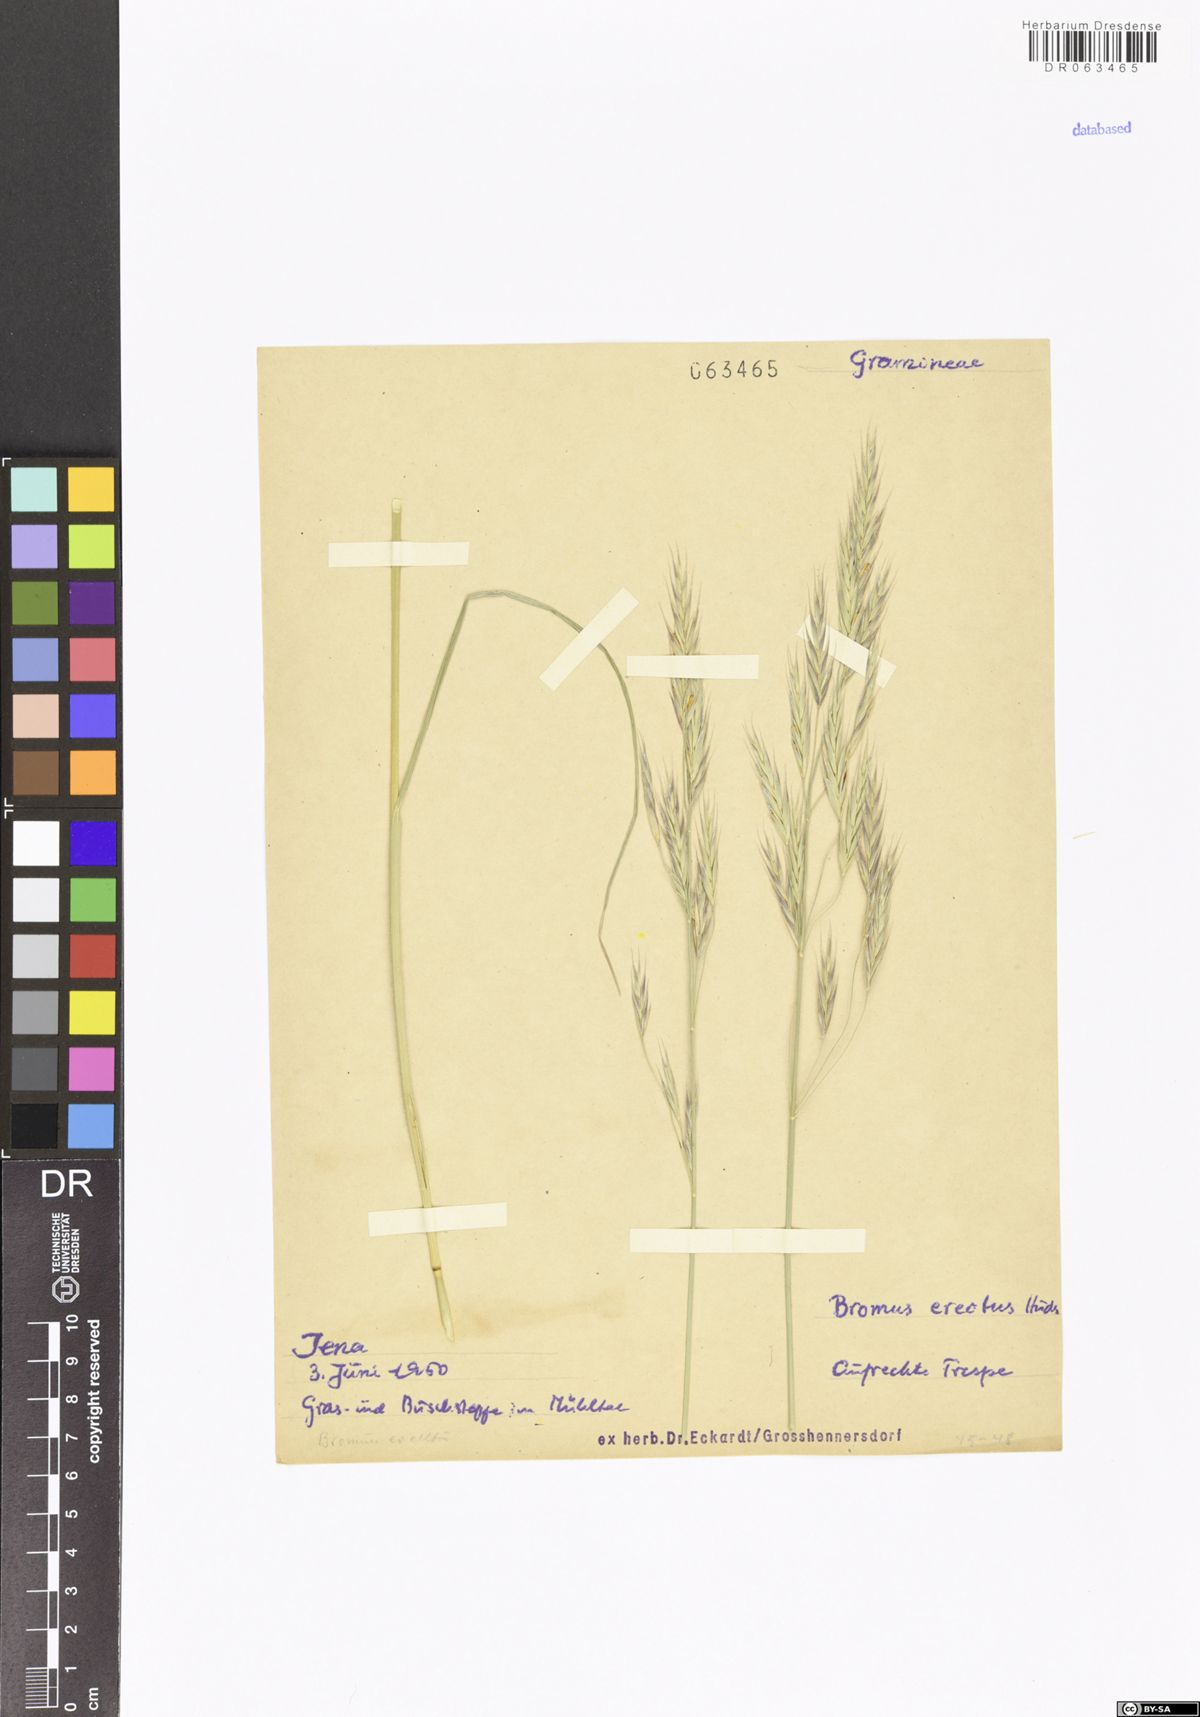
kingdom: Plantae
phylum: Tracheophyta
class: Liliopsida
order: Poales
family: Poaceae
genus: Bromus
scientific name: Bromus erectus
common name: Erect brome
